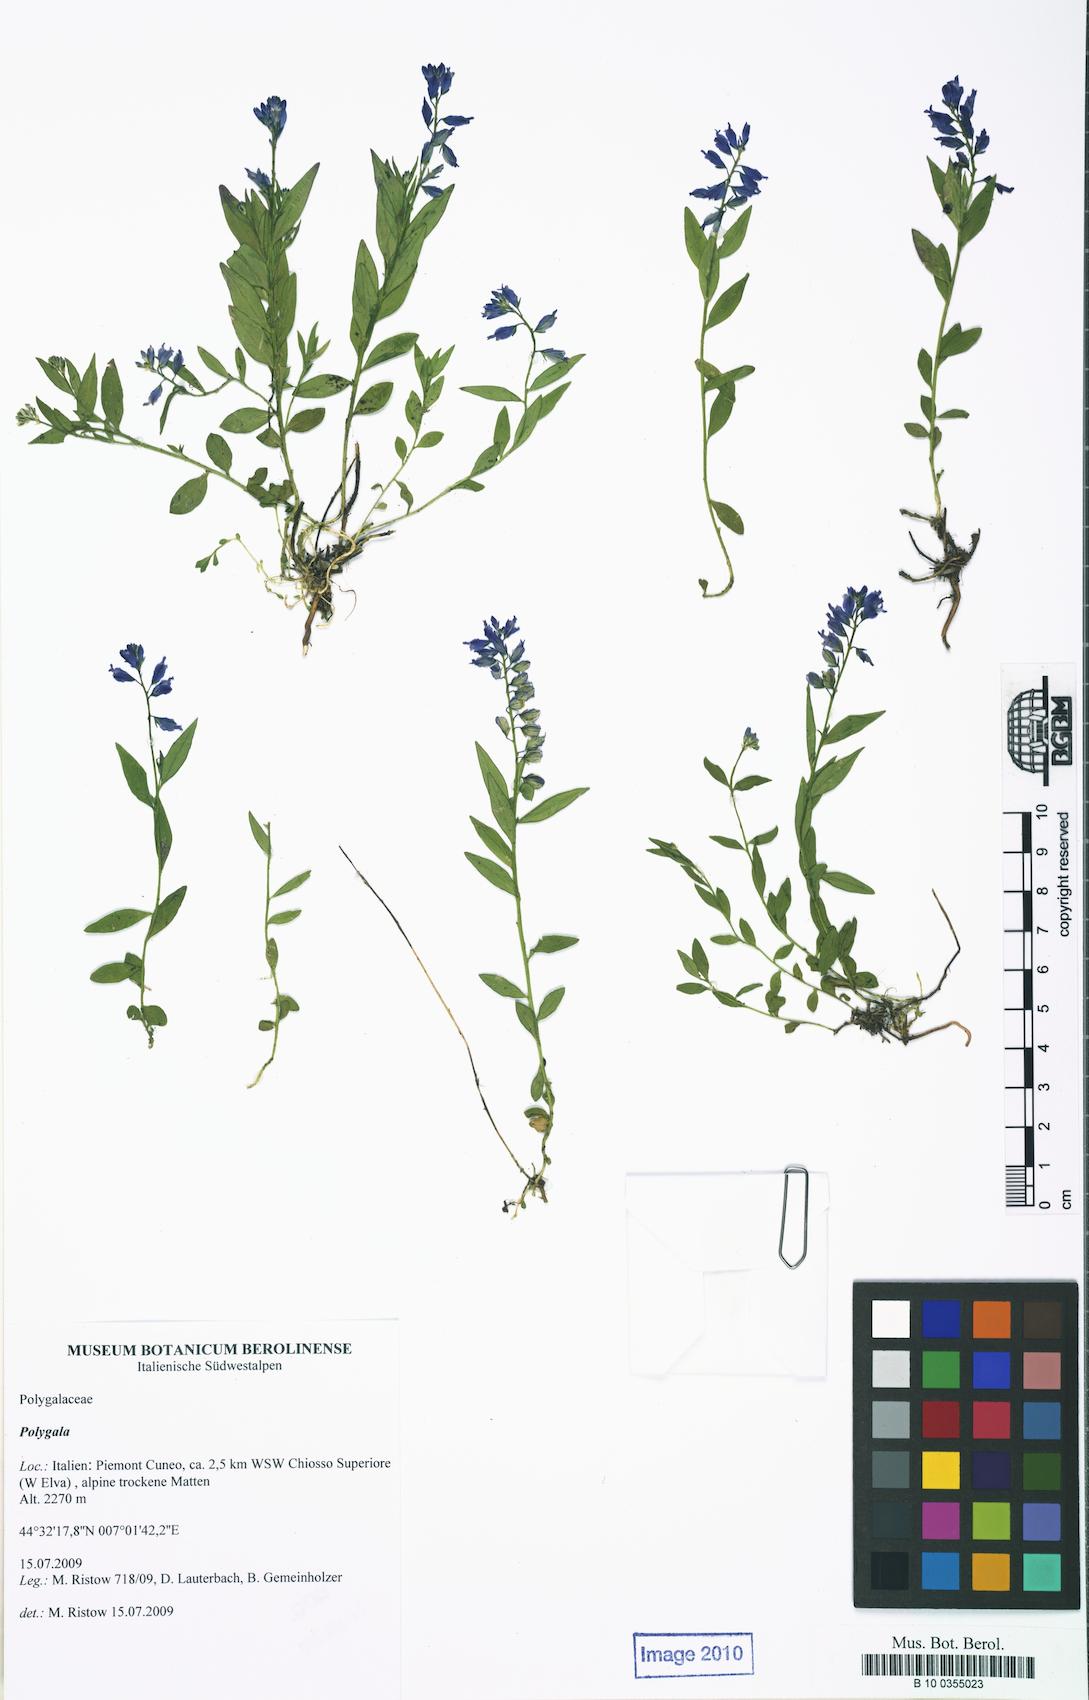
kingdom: Plantae
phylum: Tracheophyta
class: Magnoliopsida
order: Fabales
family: Polygalaceae
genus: Polygala
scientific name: Polygala vulgaris
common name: Common milkwort
